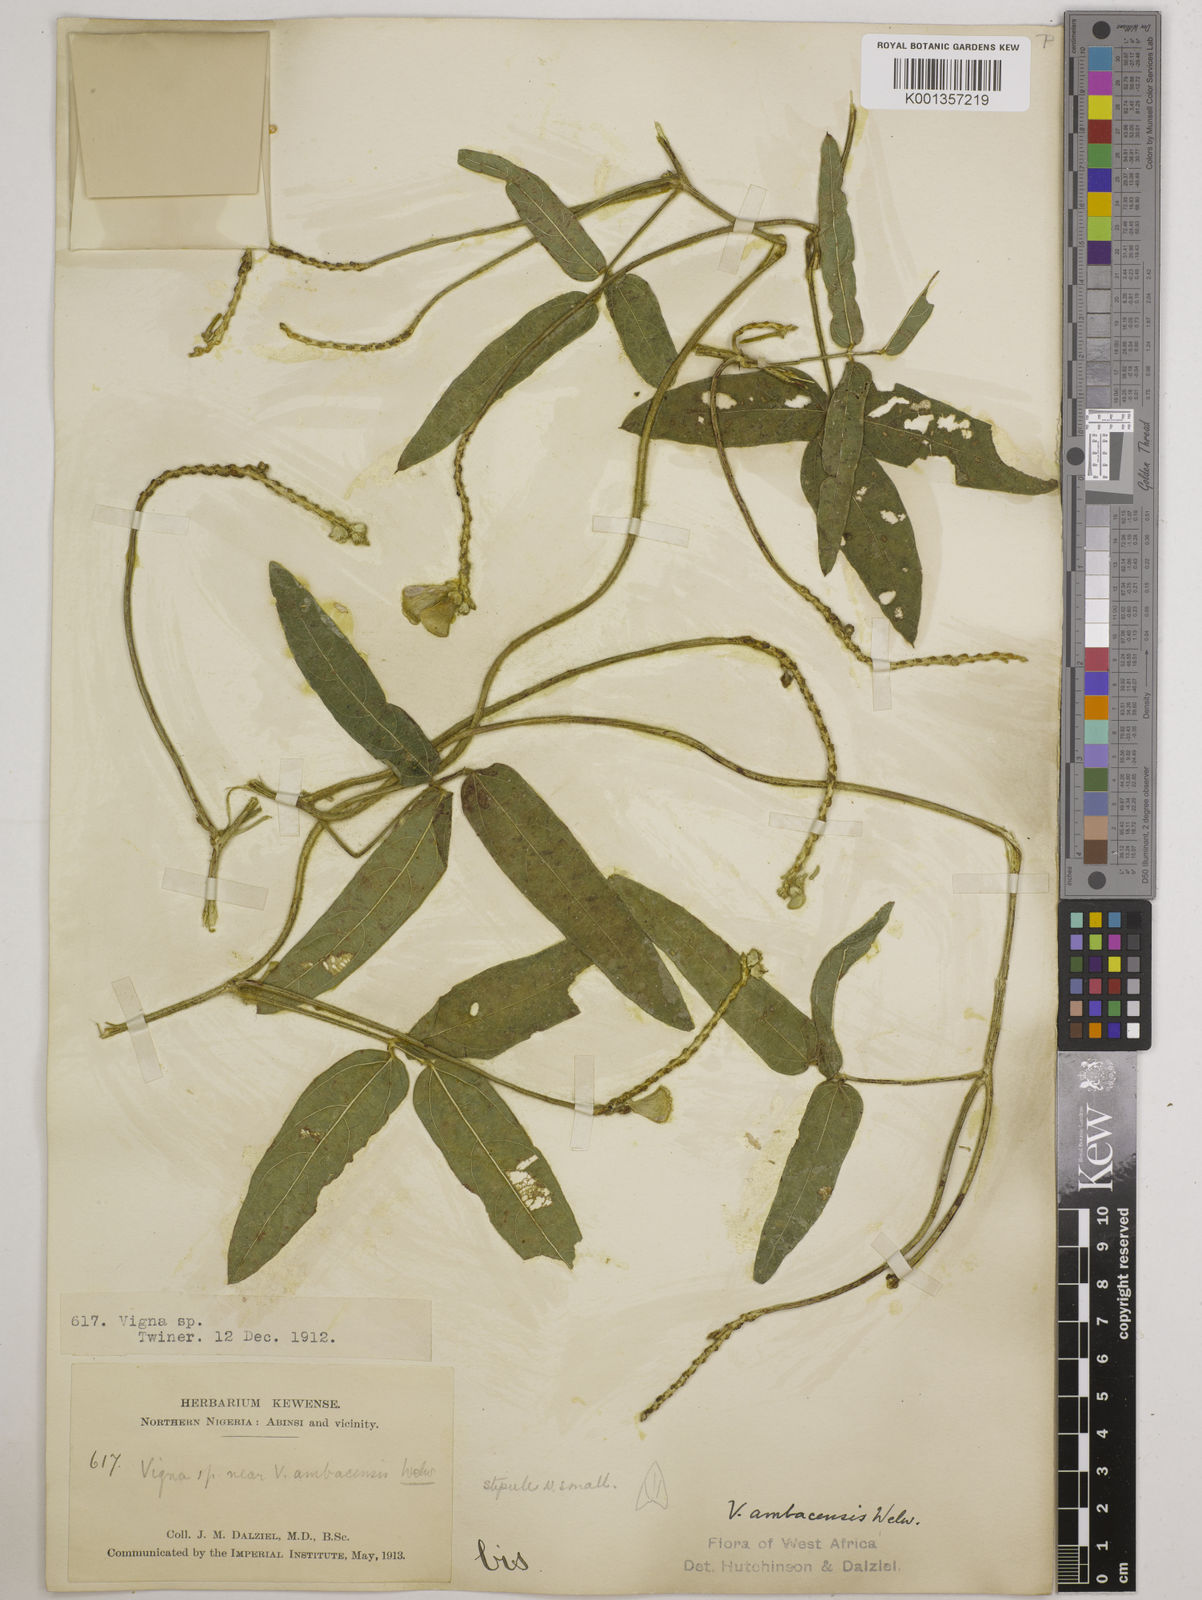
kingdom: Plantae
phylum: Tracheophyta
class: Magnoliopsida
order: Fabales
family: Fabaceae
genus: Vigna
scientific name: Vigna ambacensis
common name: Tsarkiyan zomo
